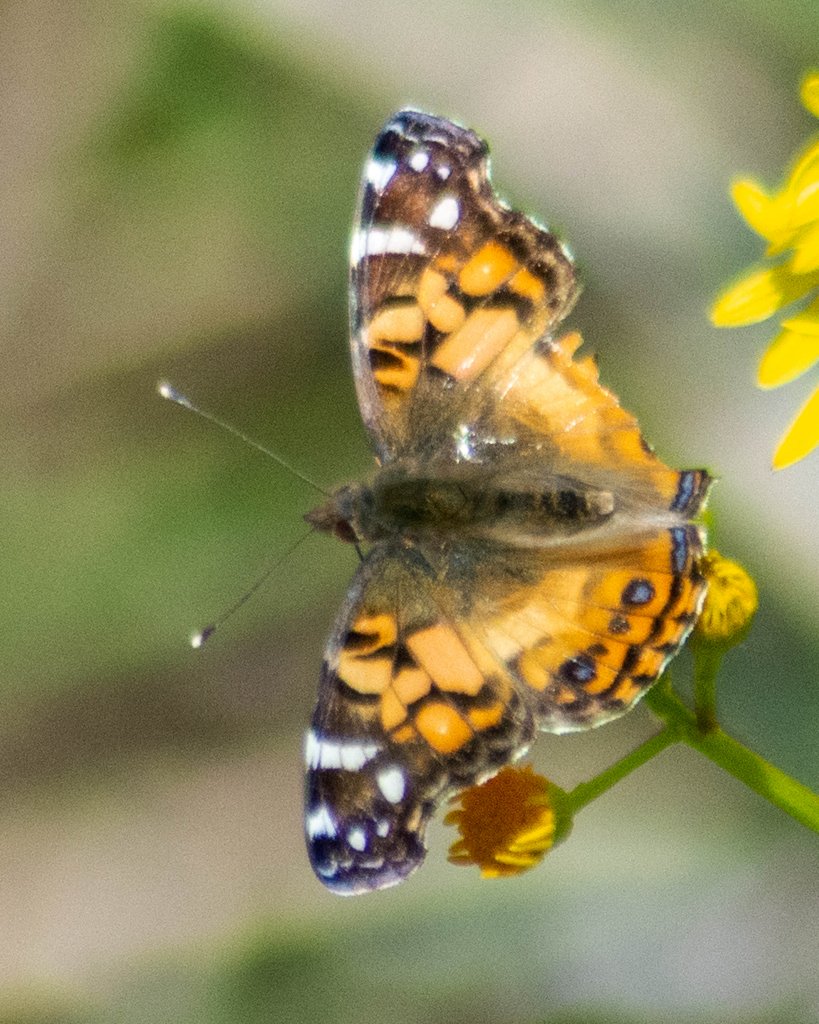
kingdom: Animalia
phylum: Arthropoda
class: Insecta
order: Lepidoptera
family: Nymphalidae
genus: Vanessa
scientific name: Vanessa virginiensis
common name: American Lady
